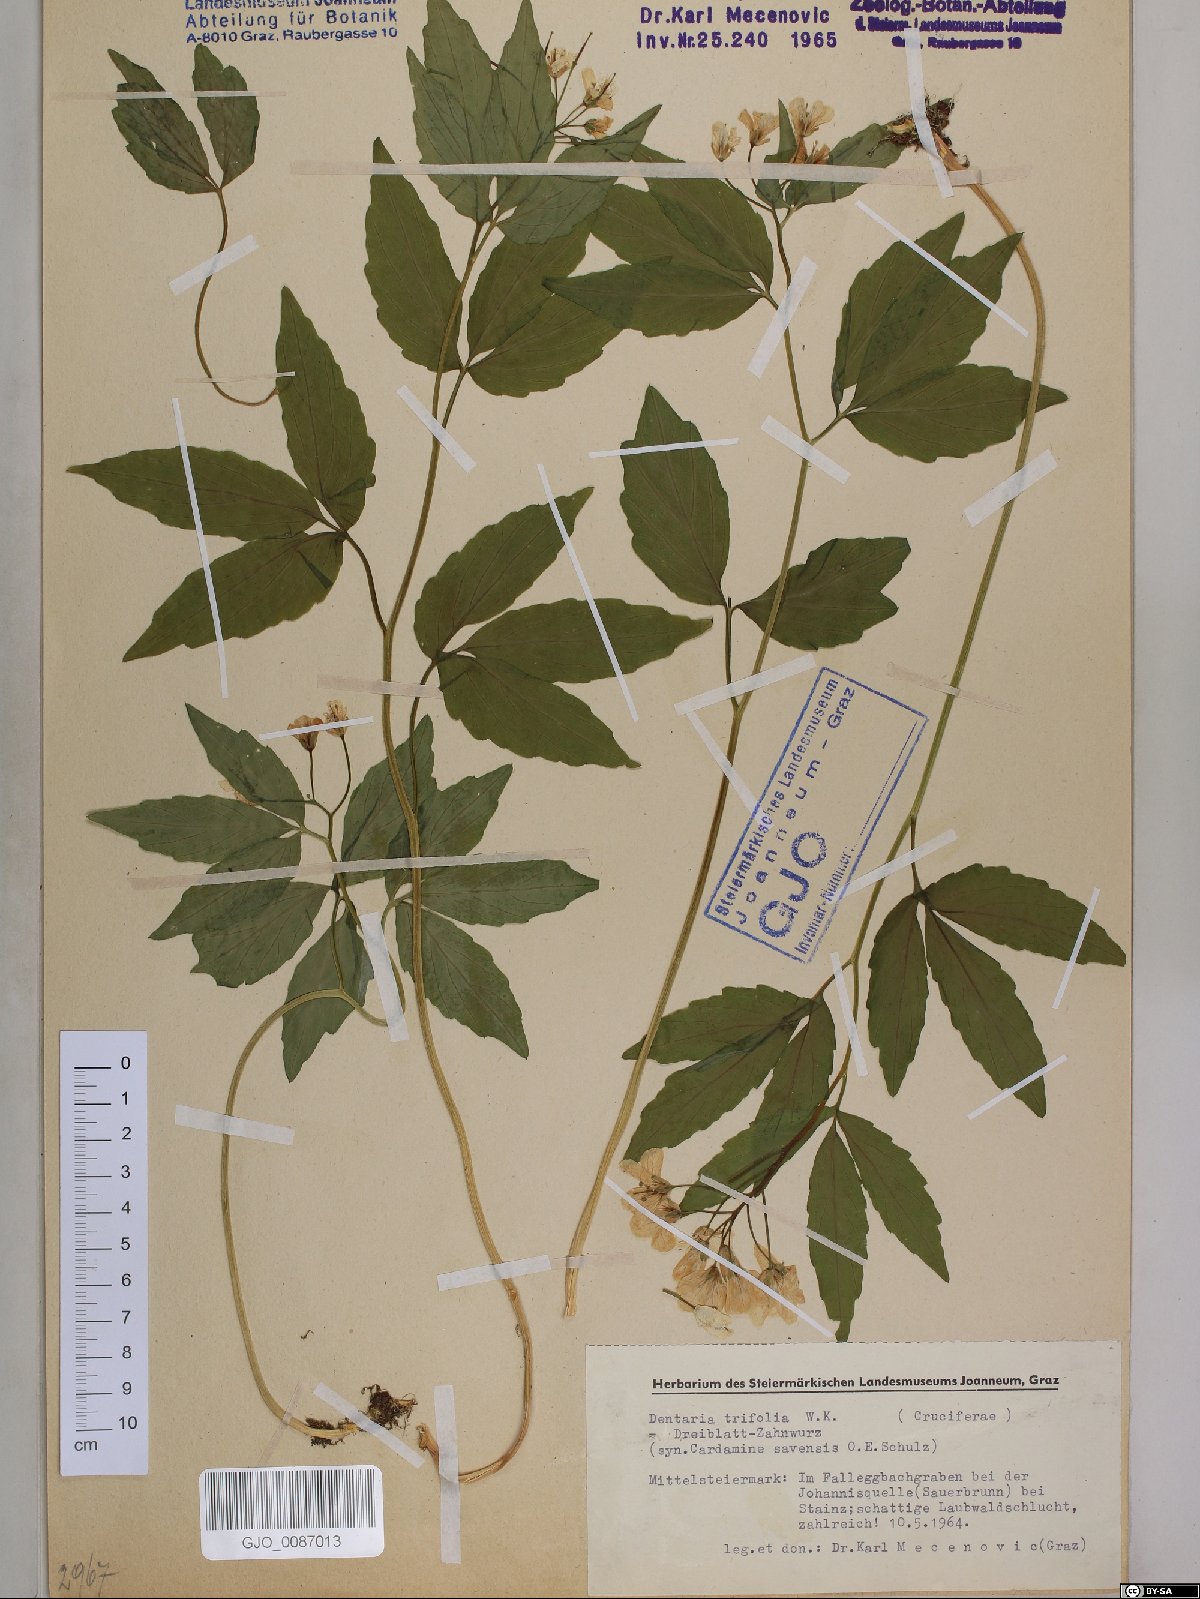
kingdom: Plantae
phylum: Tracheophyta
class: Magnoliopsida
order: Brassicales
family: Brassicaceae
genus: Cardamine
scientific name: Cardamine waldsteinii
